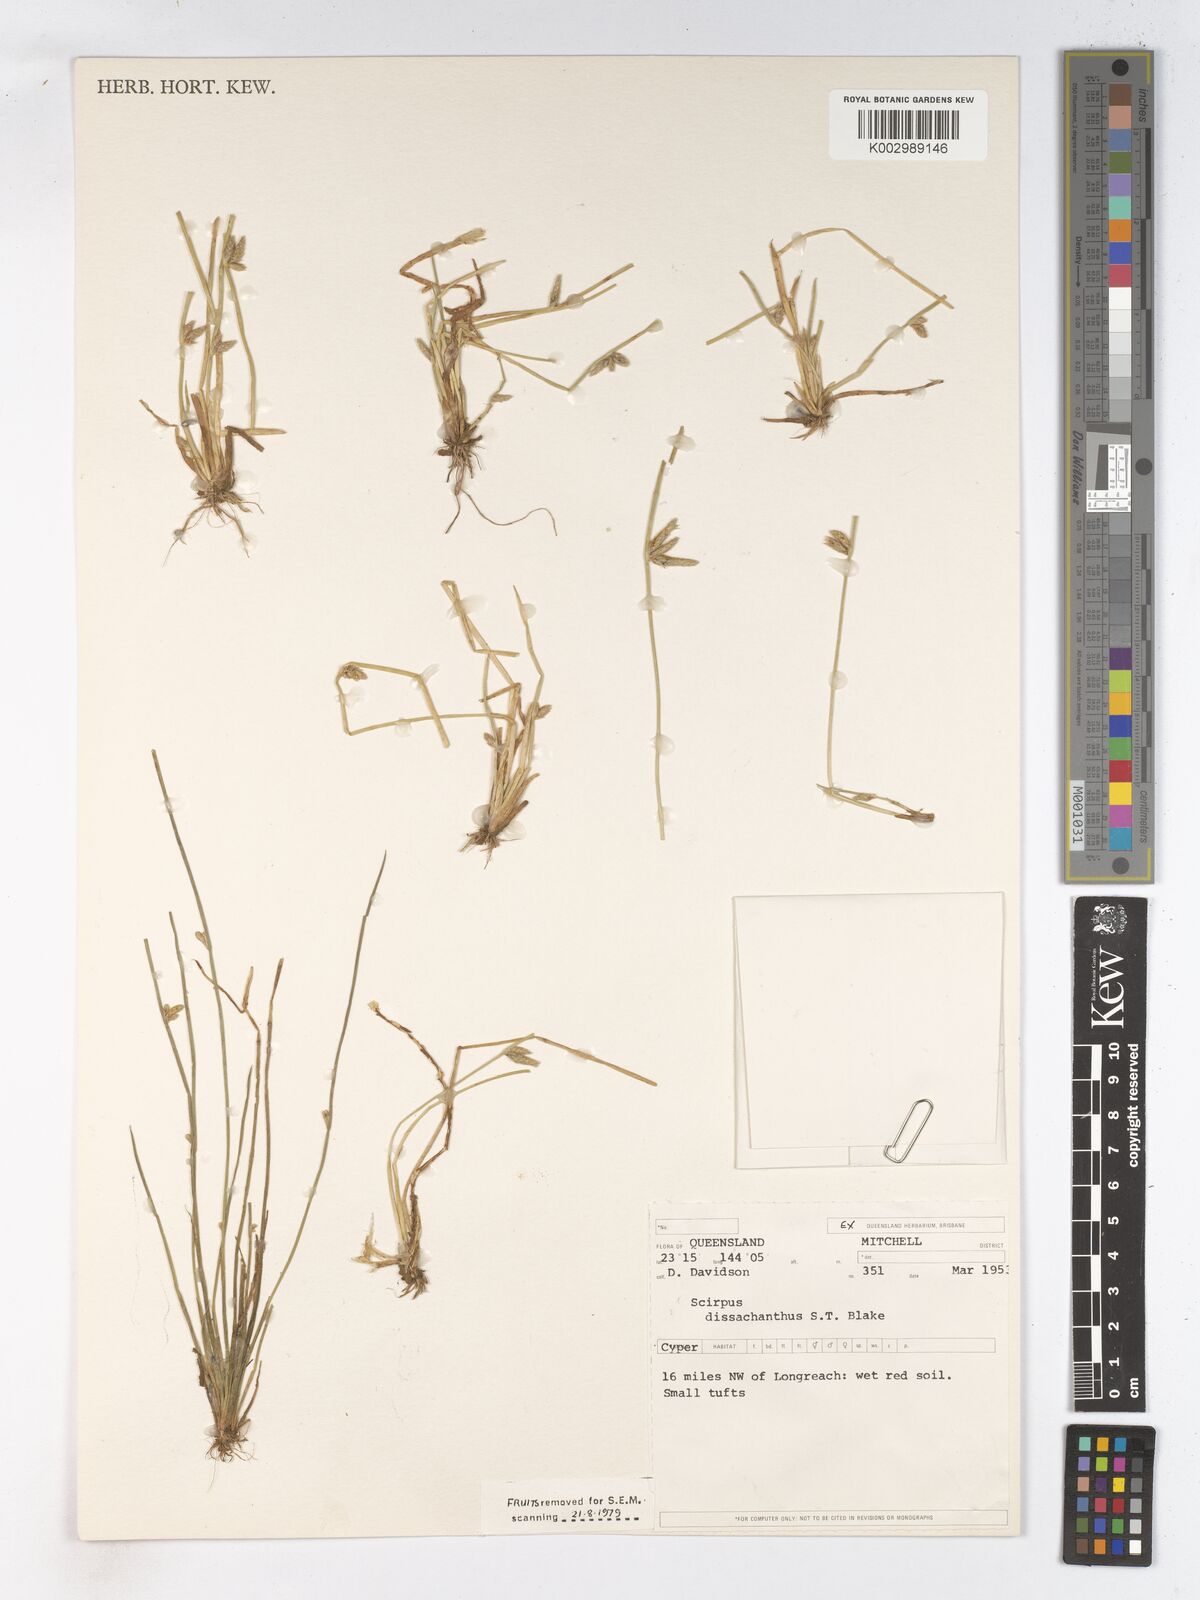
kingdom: Plantae
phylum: Tracheophyta
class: Liliopsida
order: Poales
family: Cyperaceae
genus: Schoenoplectiella
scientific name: Schoenoplectiella dissachantha
